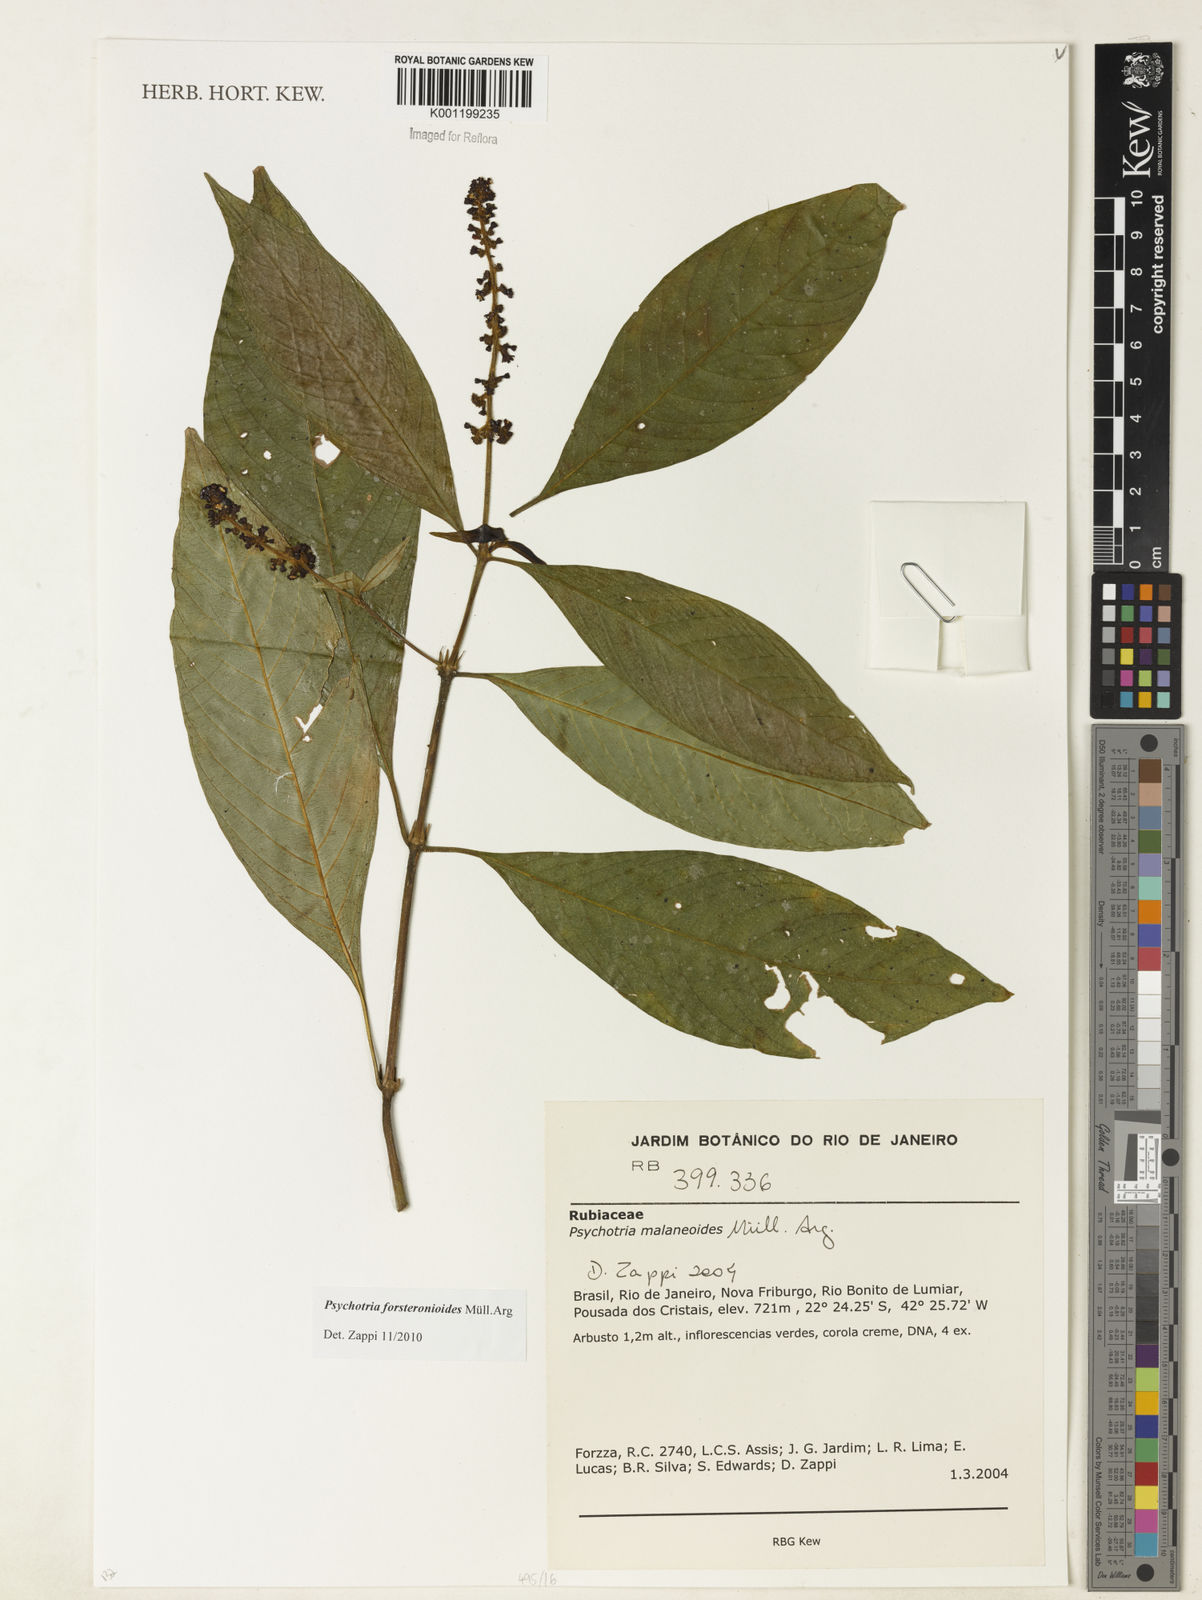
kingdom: Plantae
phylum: Tracheophyta
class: Magnoliopsida
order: Gentianales
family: Rubiaceae
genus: Psychotria
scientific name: Psychotria
